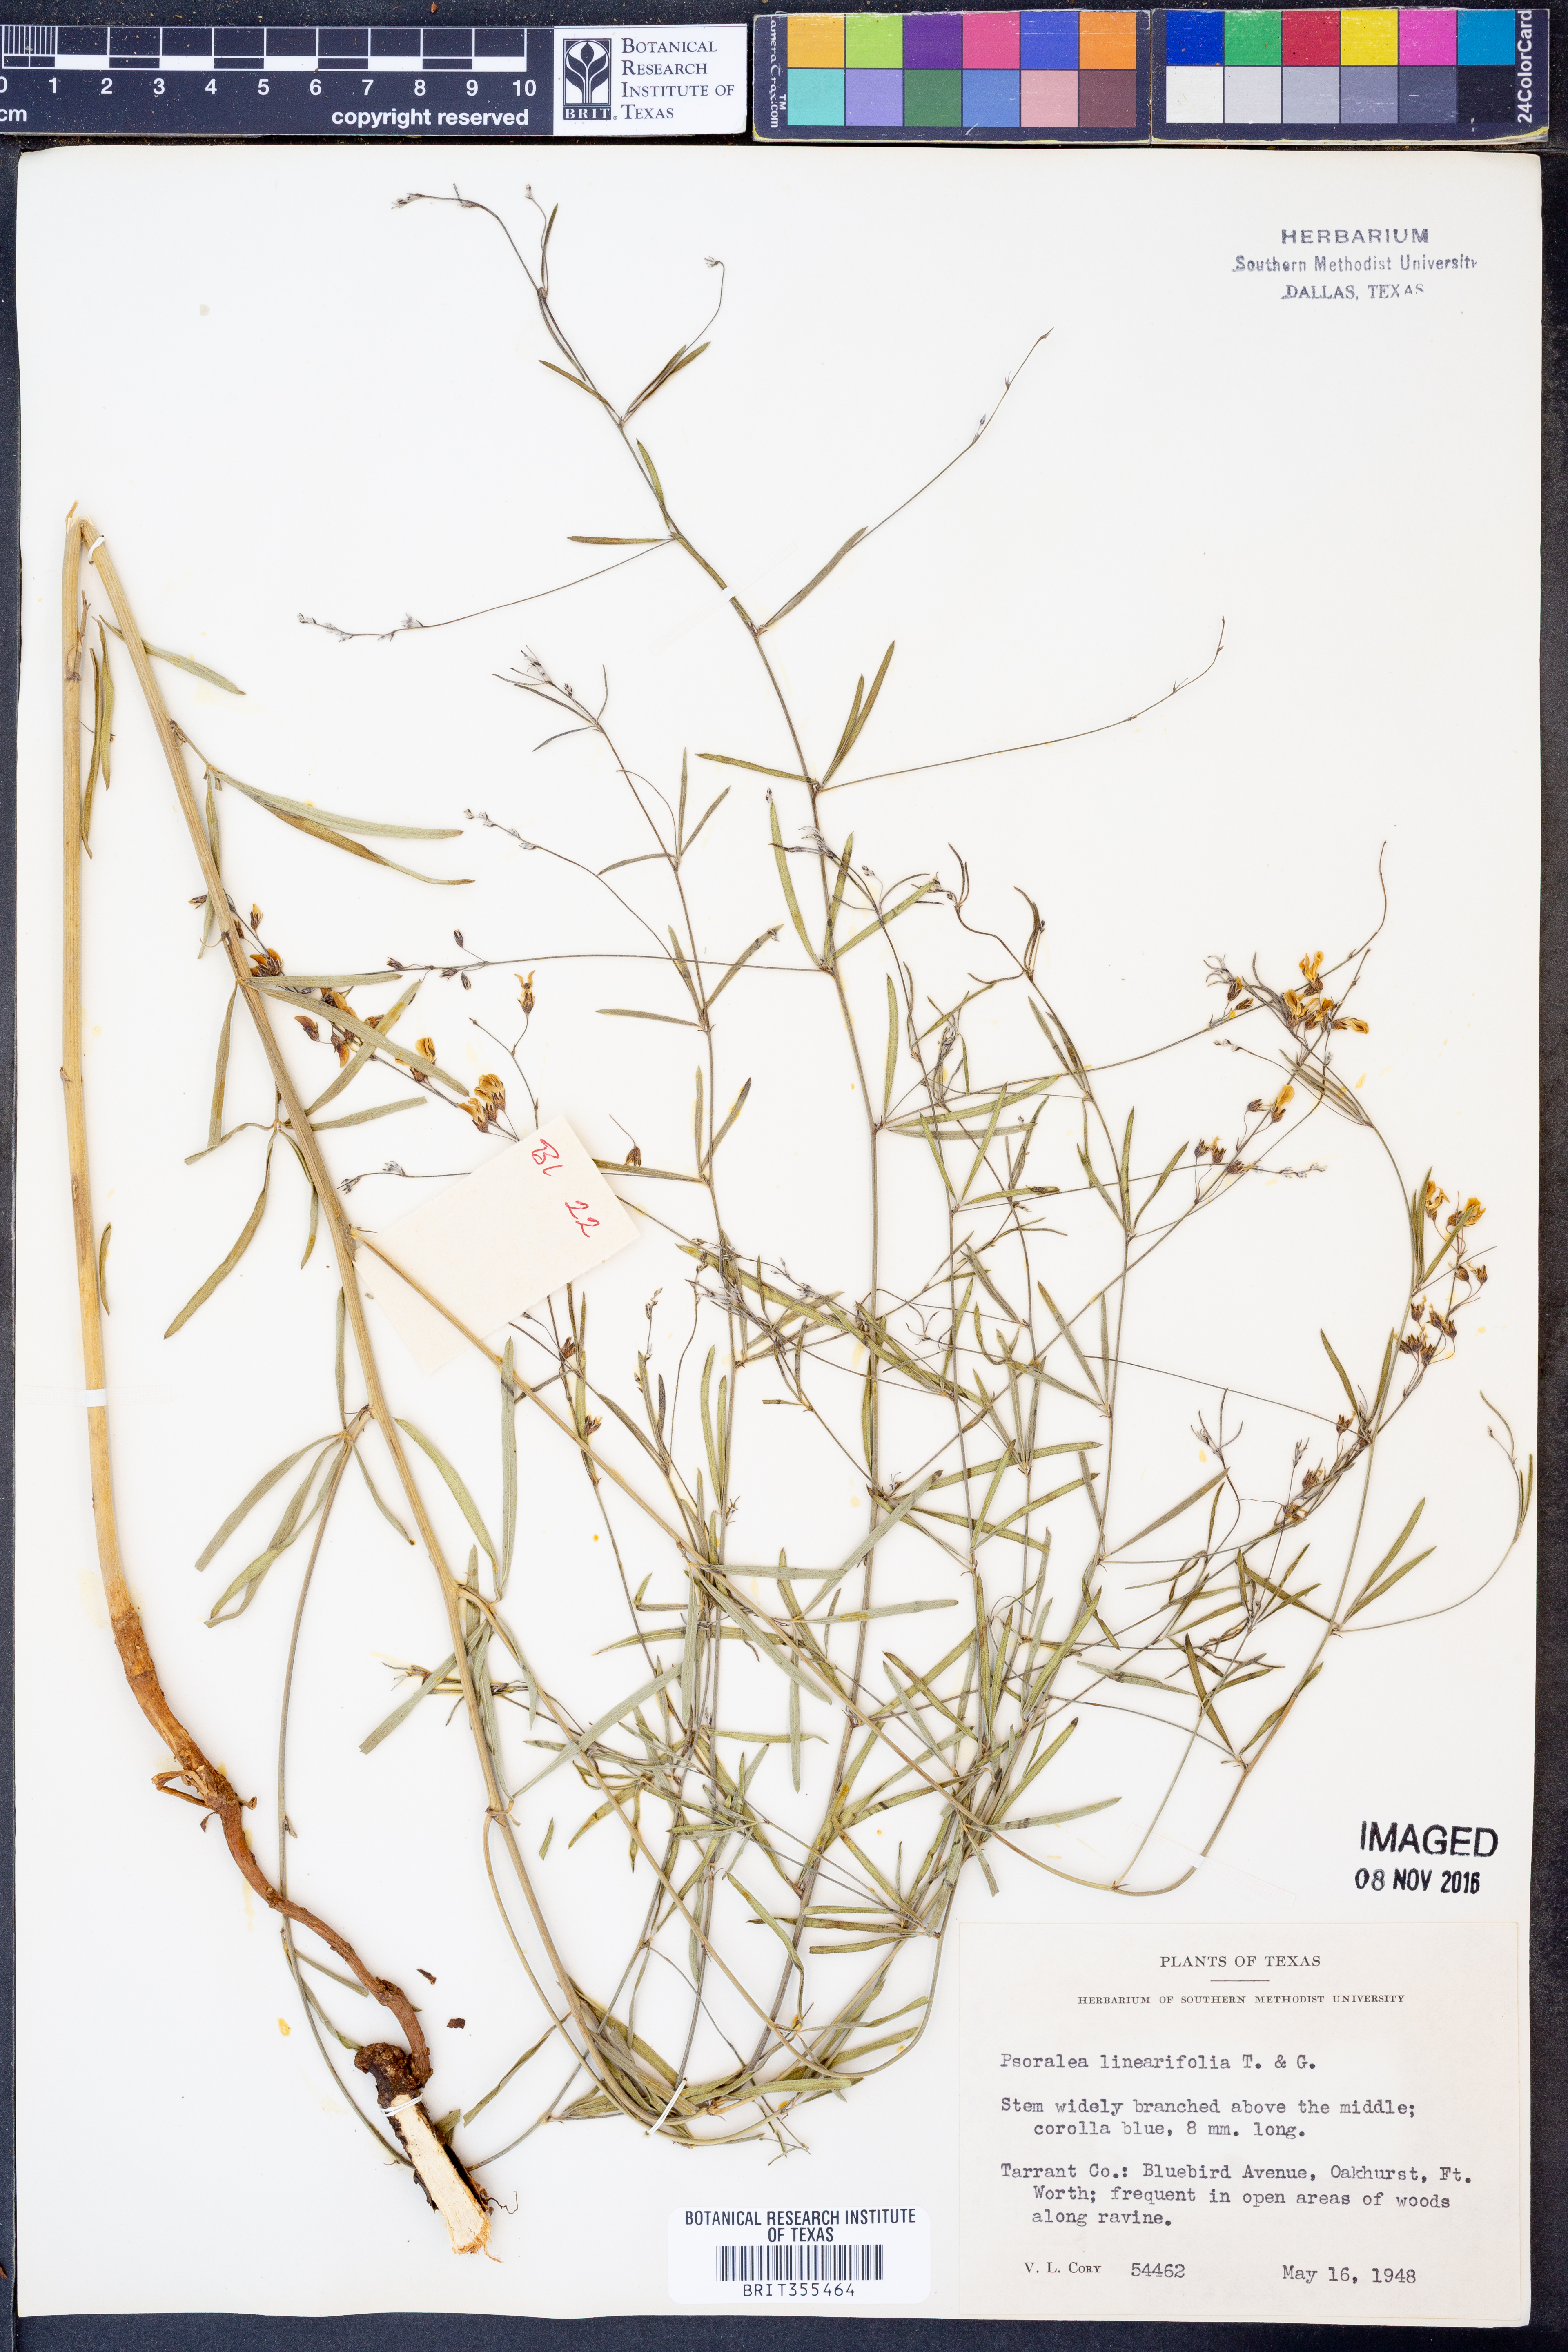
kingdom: Plantae
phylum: Tracheophyta
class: Magnoliopsida
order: Fabales
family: Fabaceae
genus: Pediomelum
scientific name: Pediomelum linearifolium
